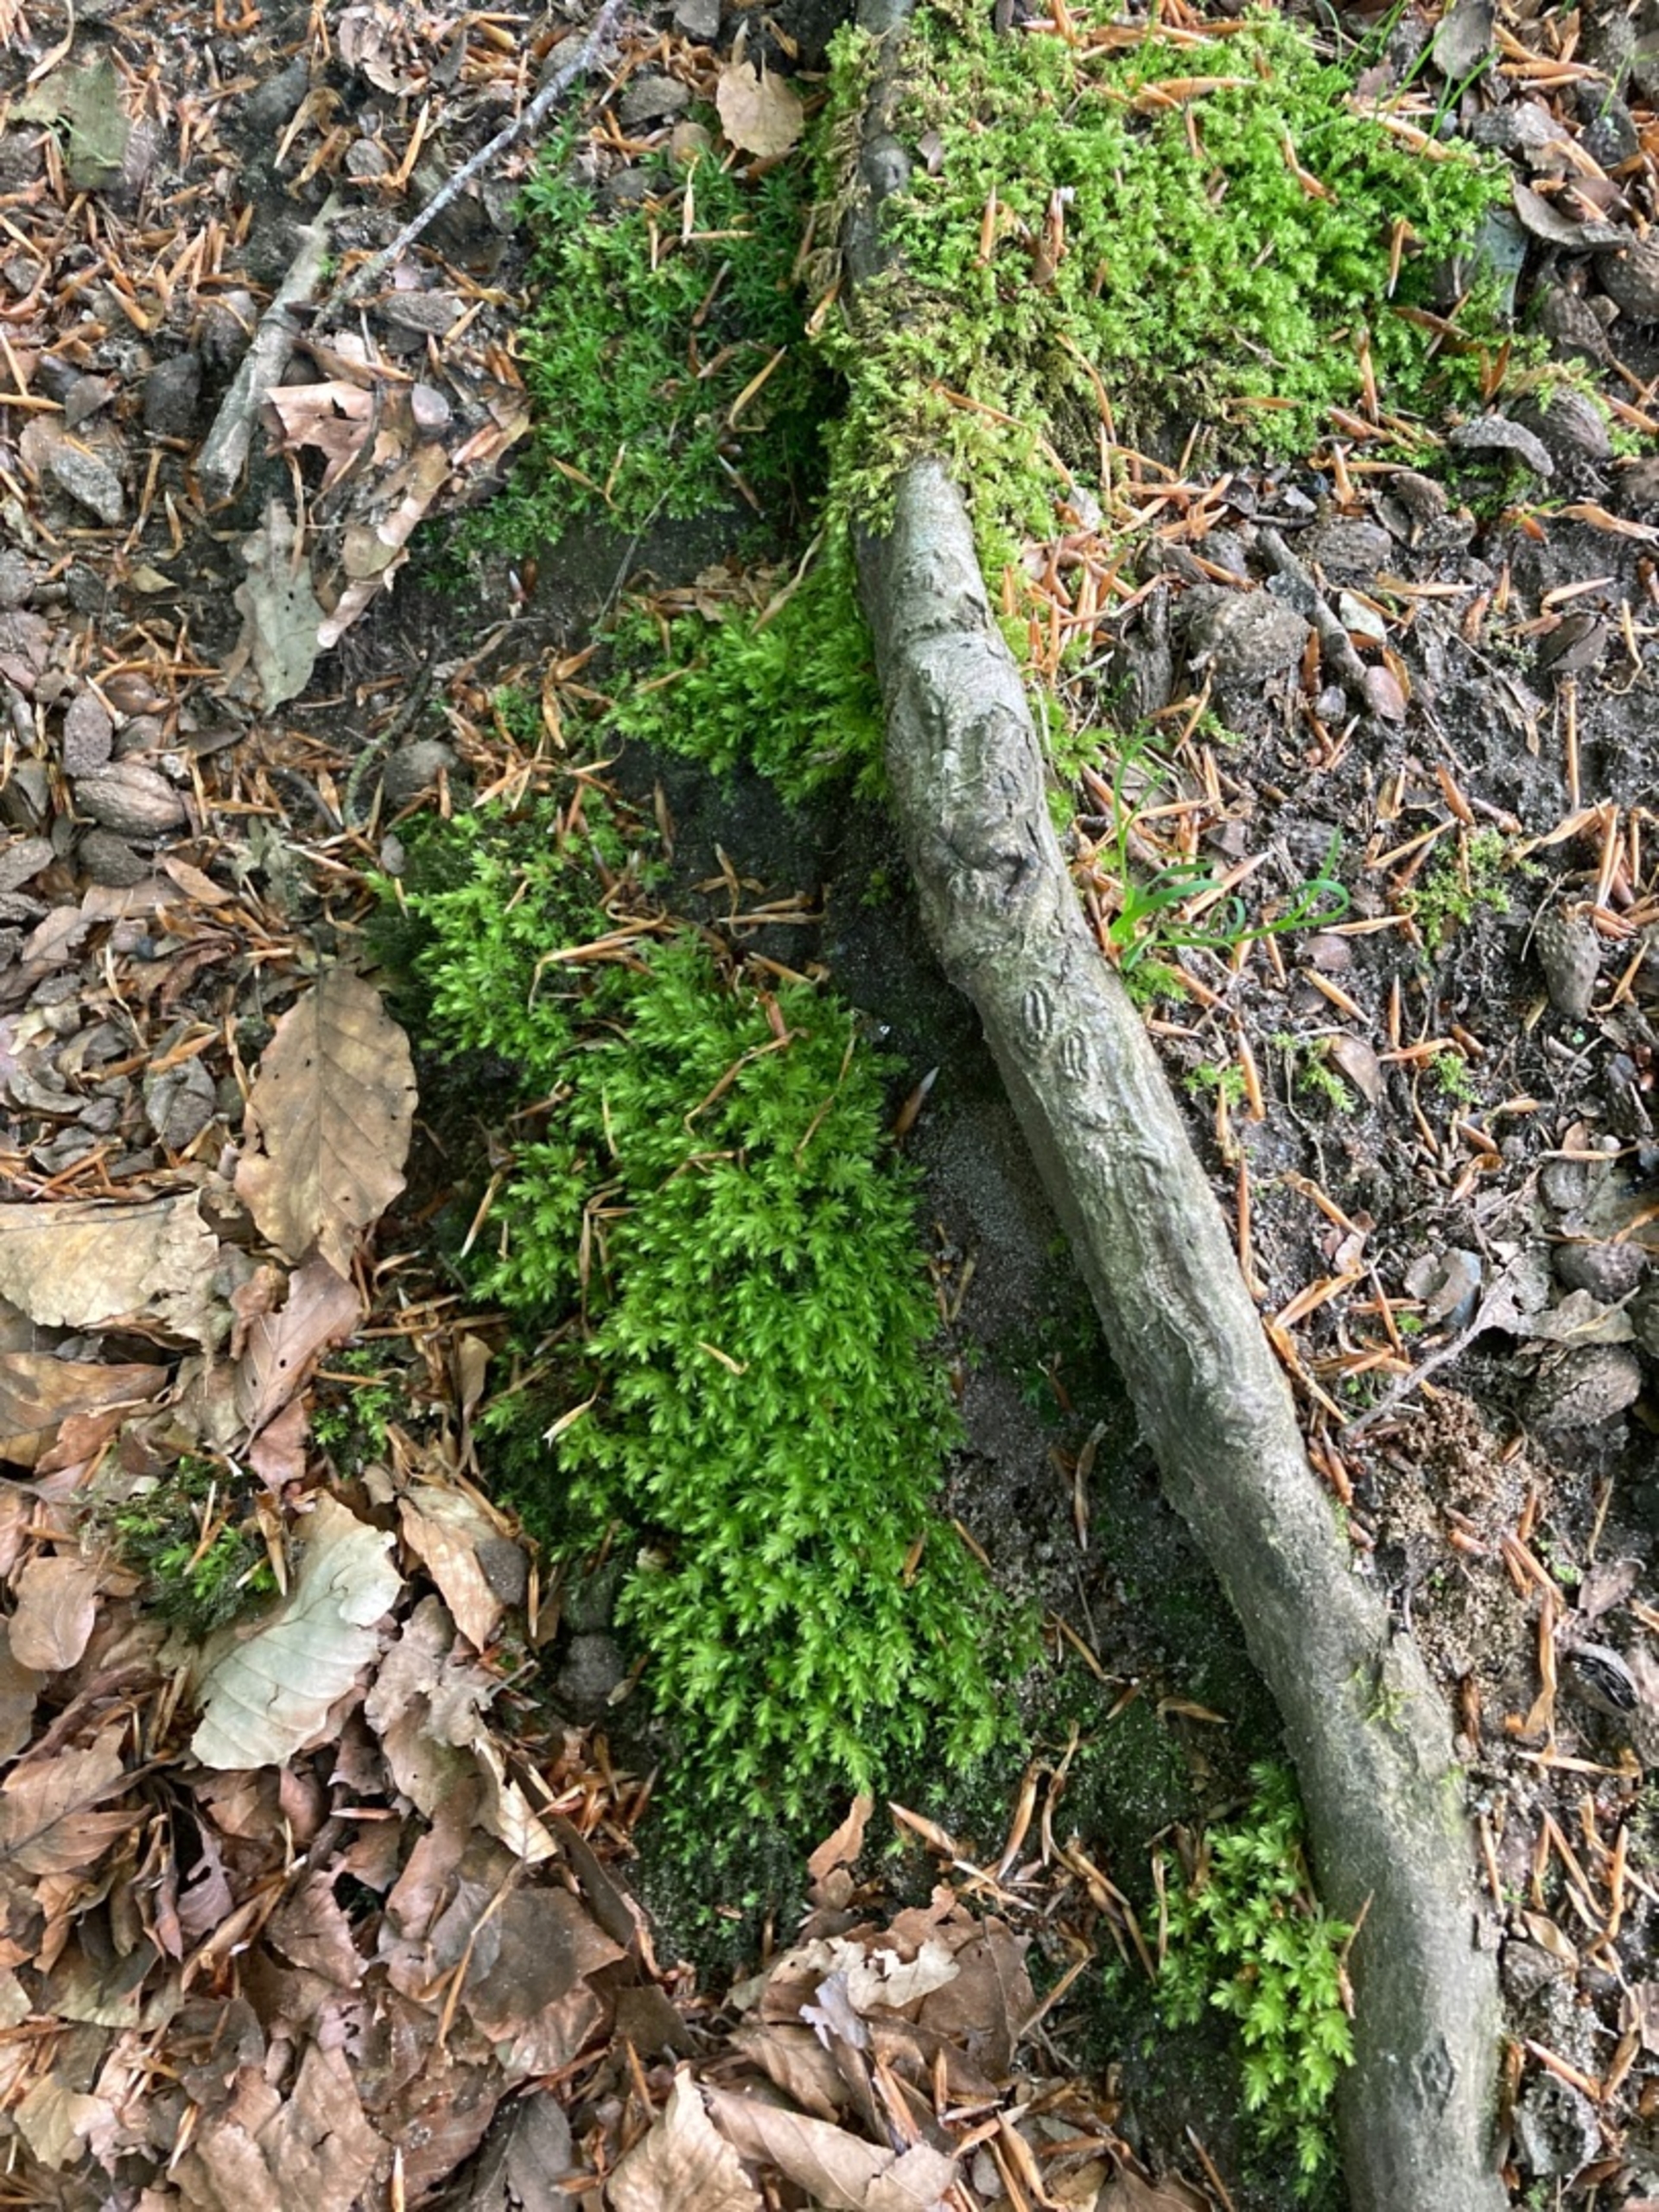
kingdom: Plantae
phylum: Bryophyta
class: Bryopsida
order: Bryales
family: Mniaceae
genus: Mnium
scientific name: Mnium hornum
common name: Brunfiltet stjernemos
